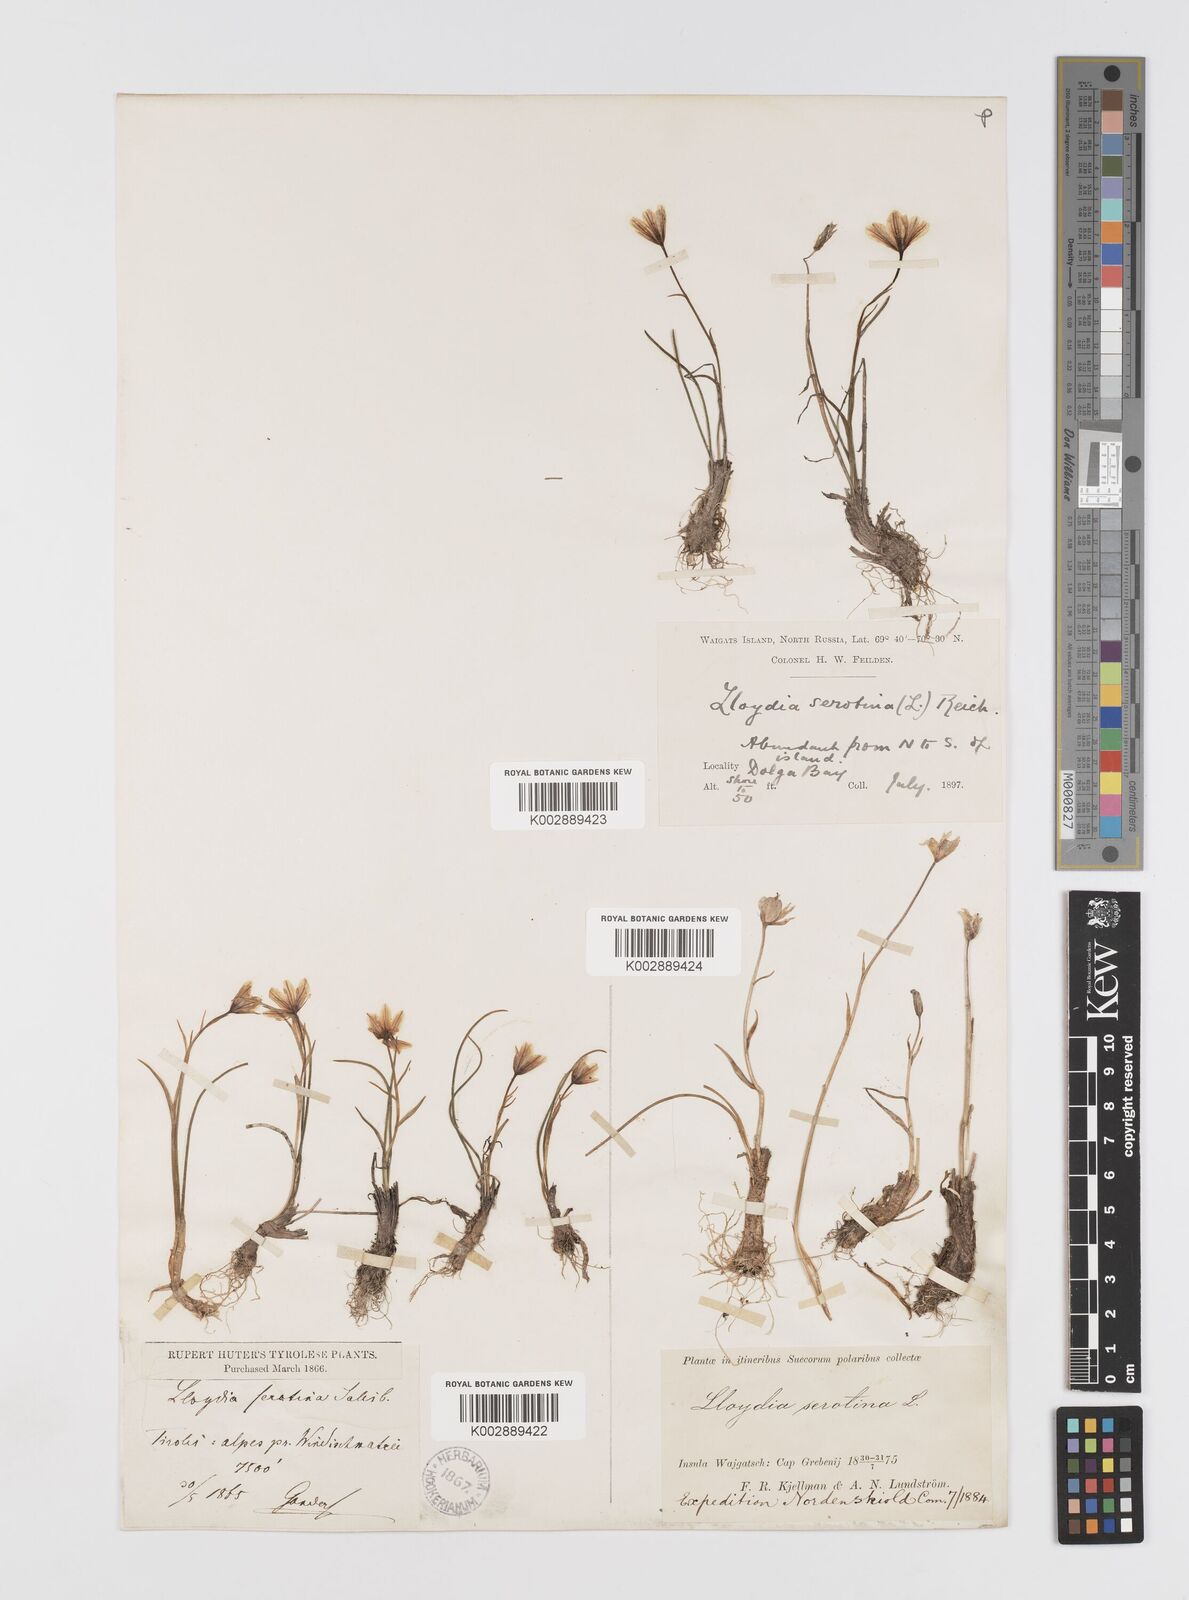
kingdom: Plantae
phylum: Tracheophyta
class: Liliopsida
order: Liliales
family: Liliaceae
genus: Gagea
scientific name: Gagea
